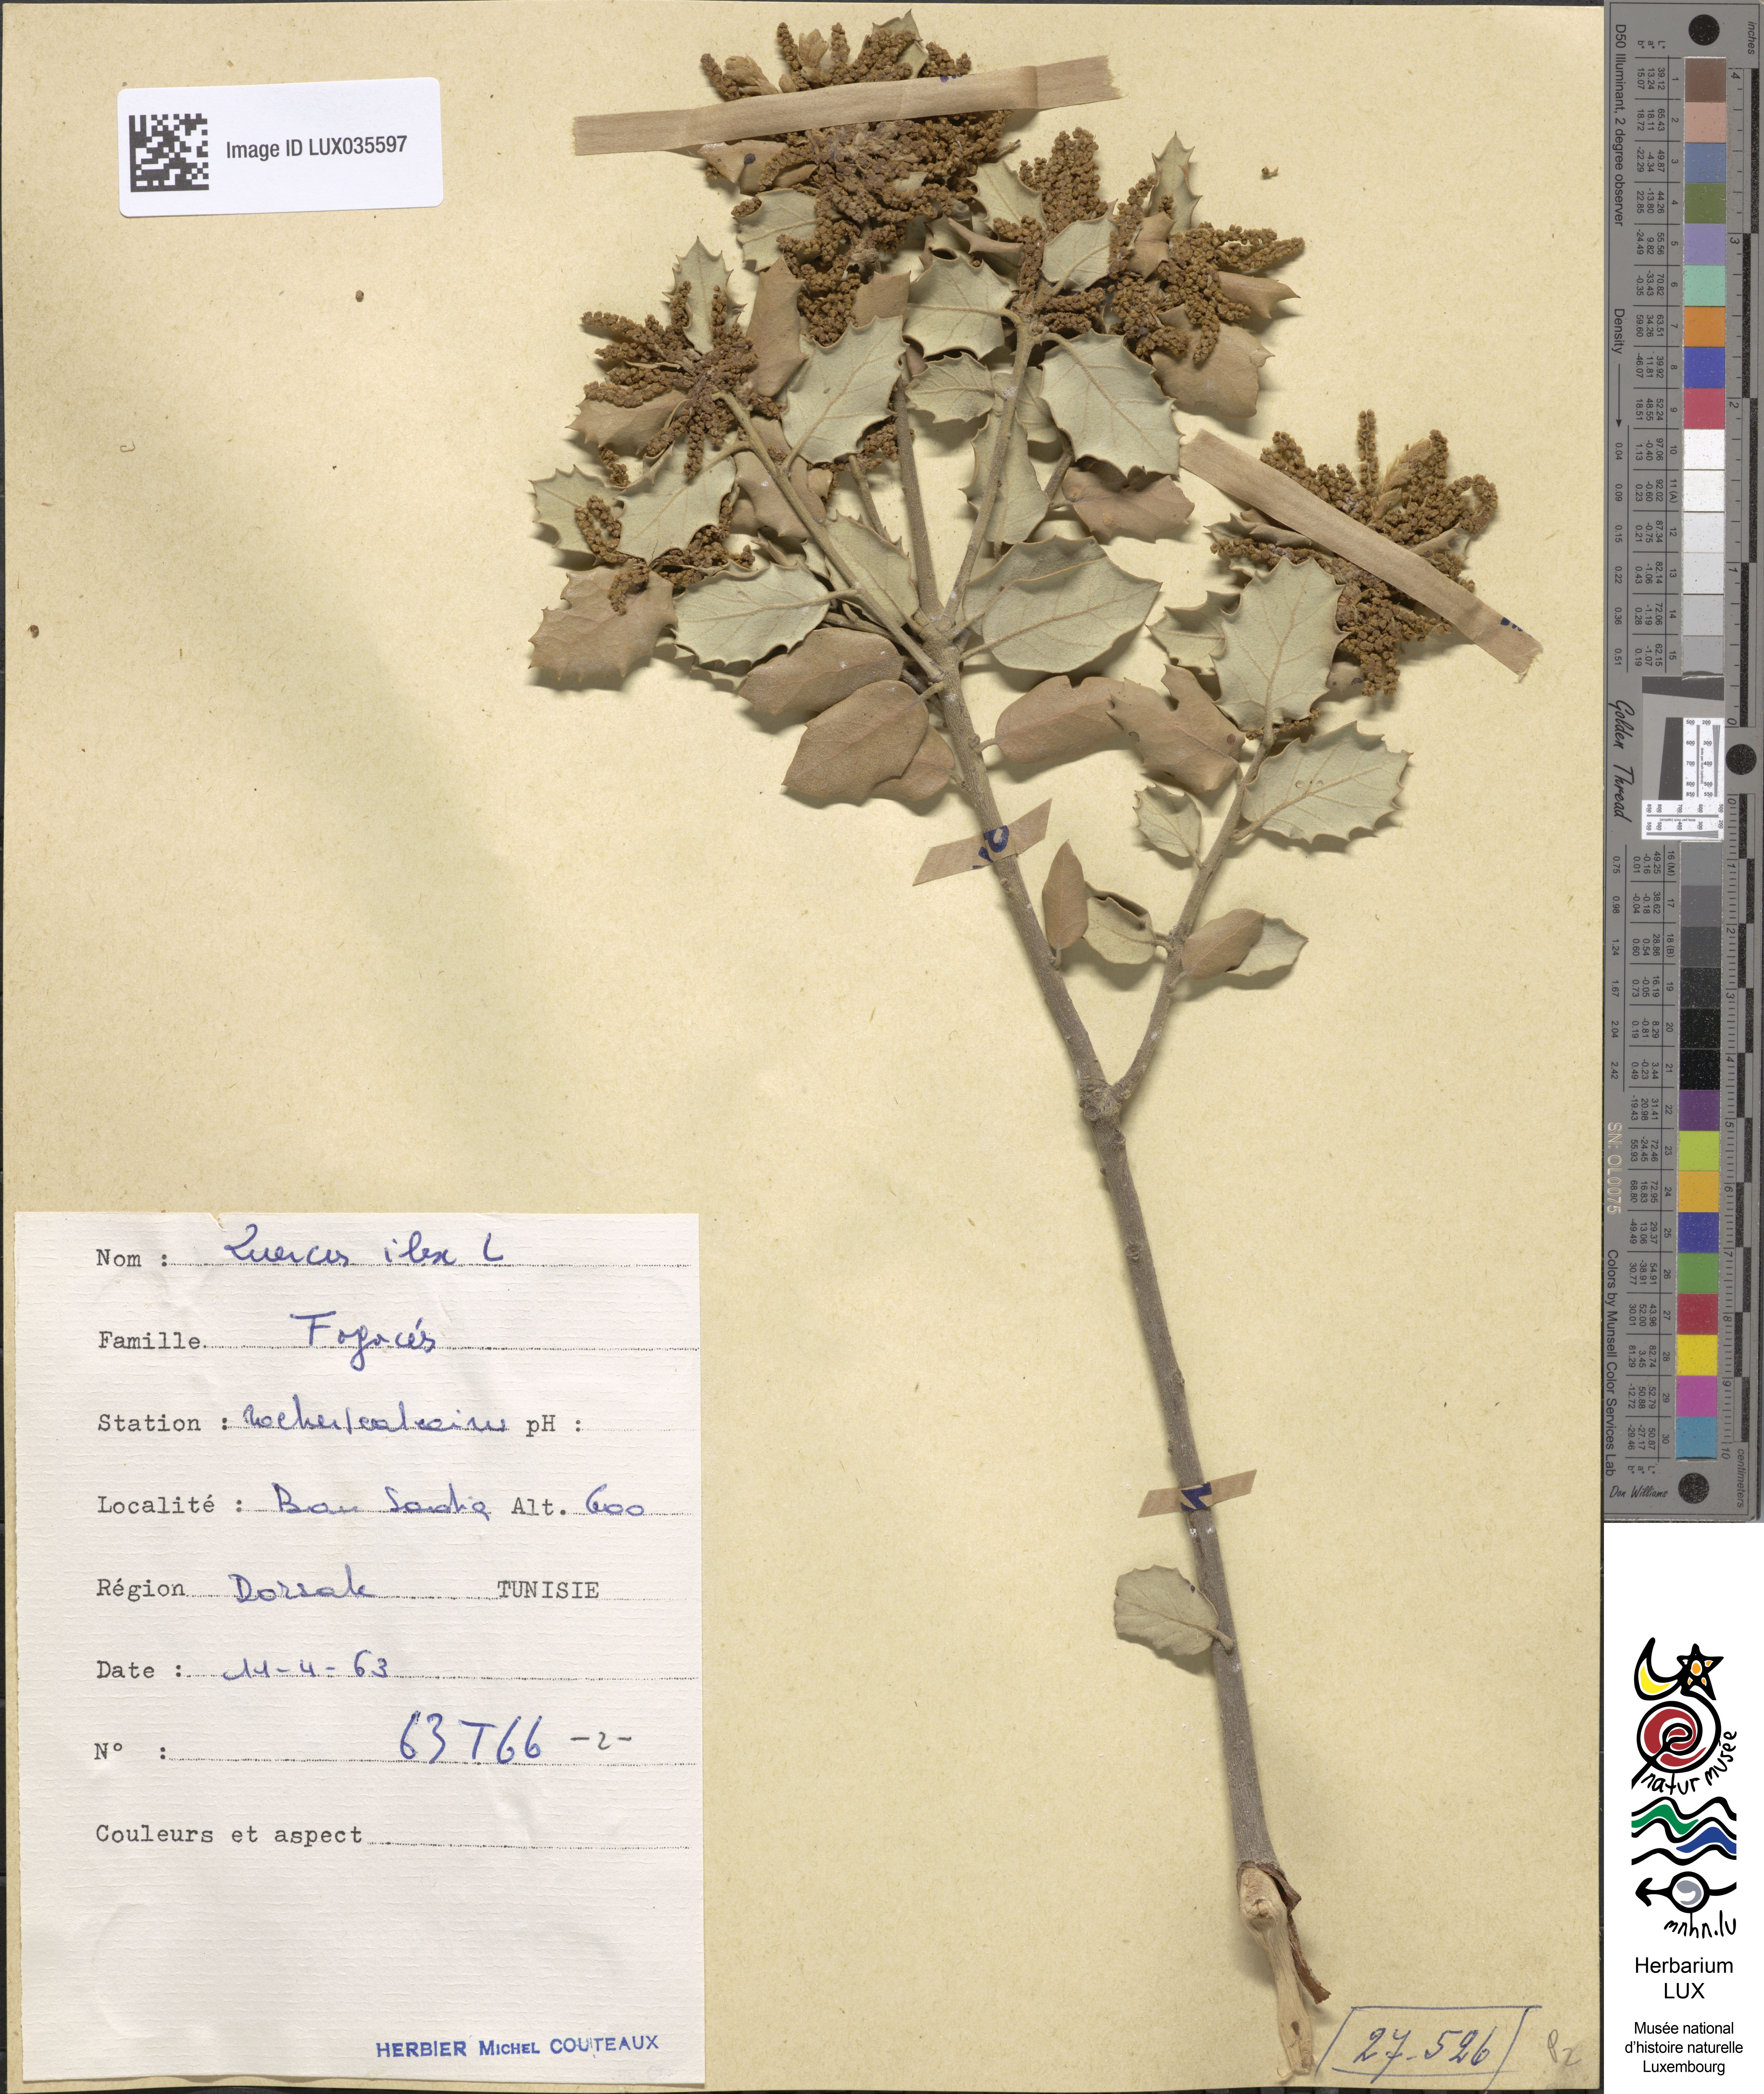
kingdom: Plantae
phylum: Tracheophyta
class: Magnoliopsida
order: Fagales
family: Fagaceae
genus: Quercus
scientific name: Quercus ilex
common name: Evergreen oak
